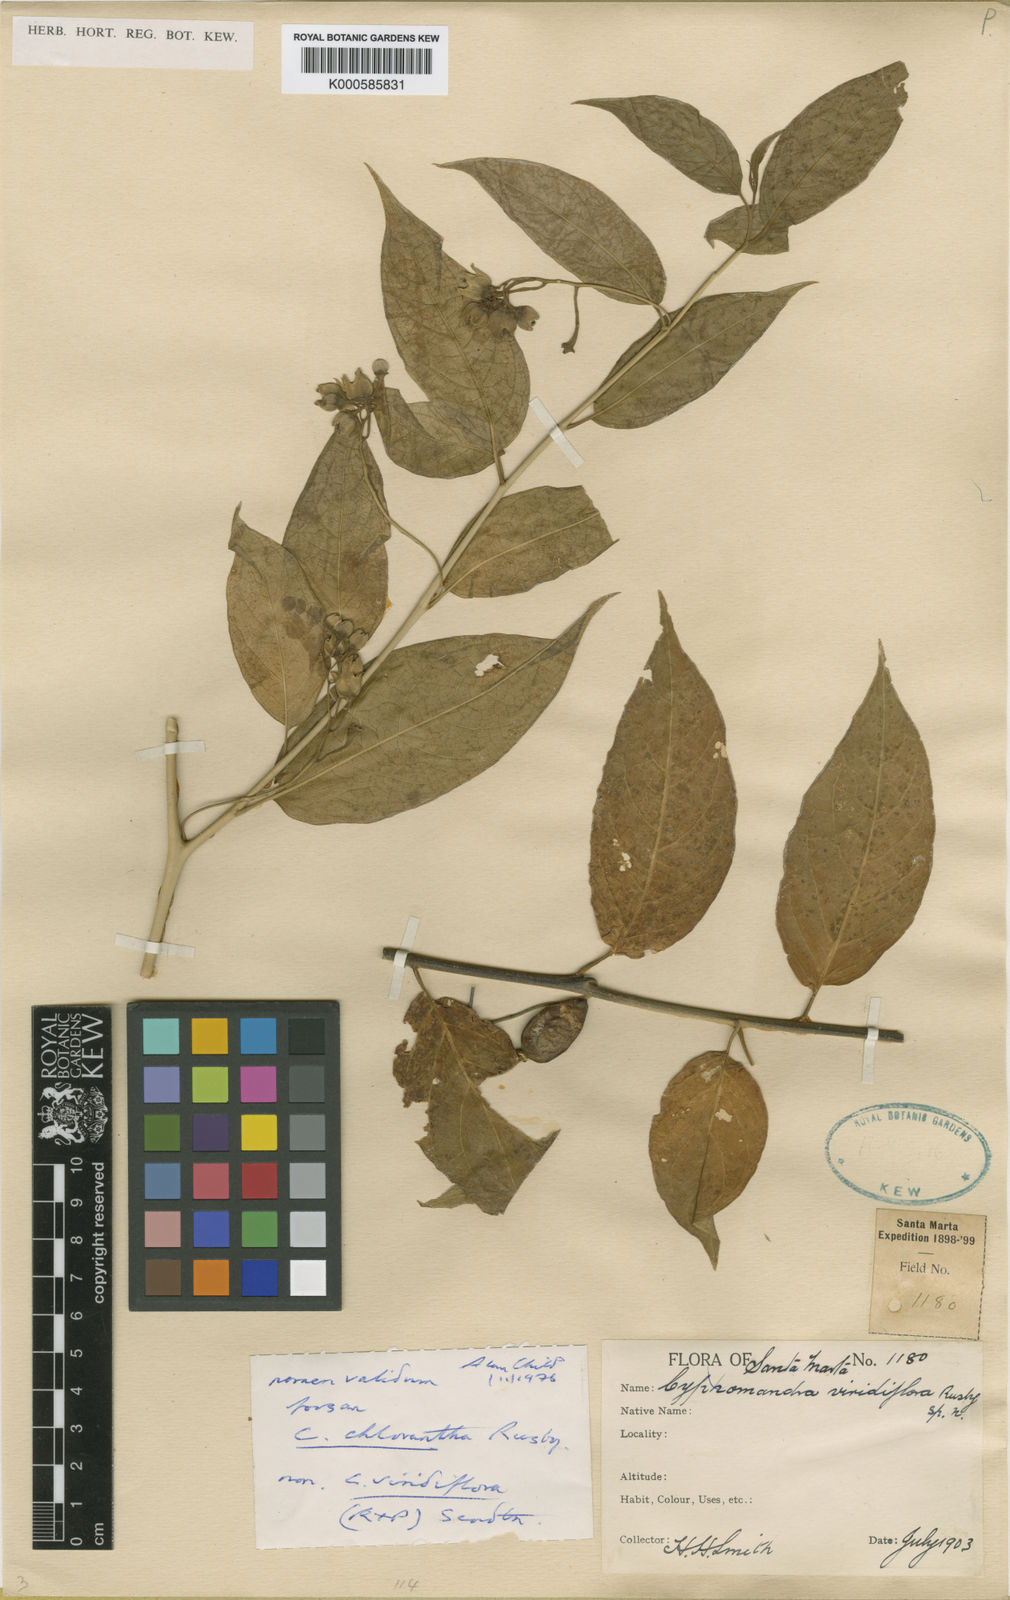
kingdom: Plantae
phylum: Tracheophyta
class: Magnoliopsida
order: Solanales
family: Solanaceae
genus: Solanum
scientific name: Solanum pendulum
